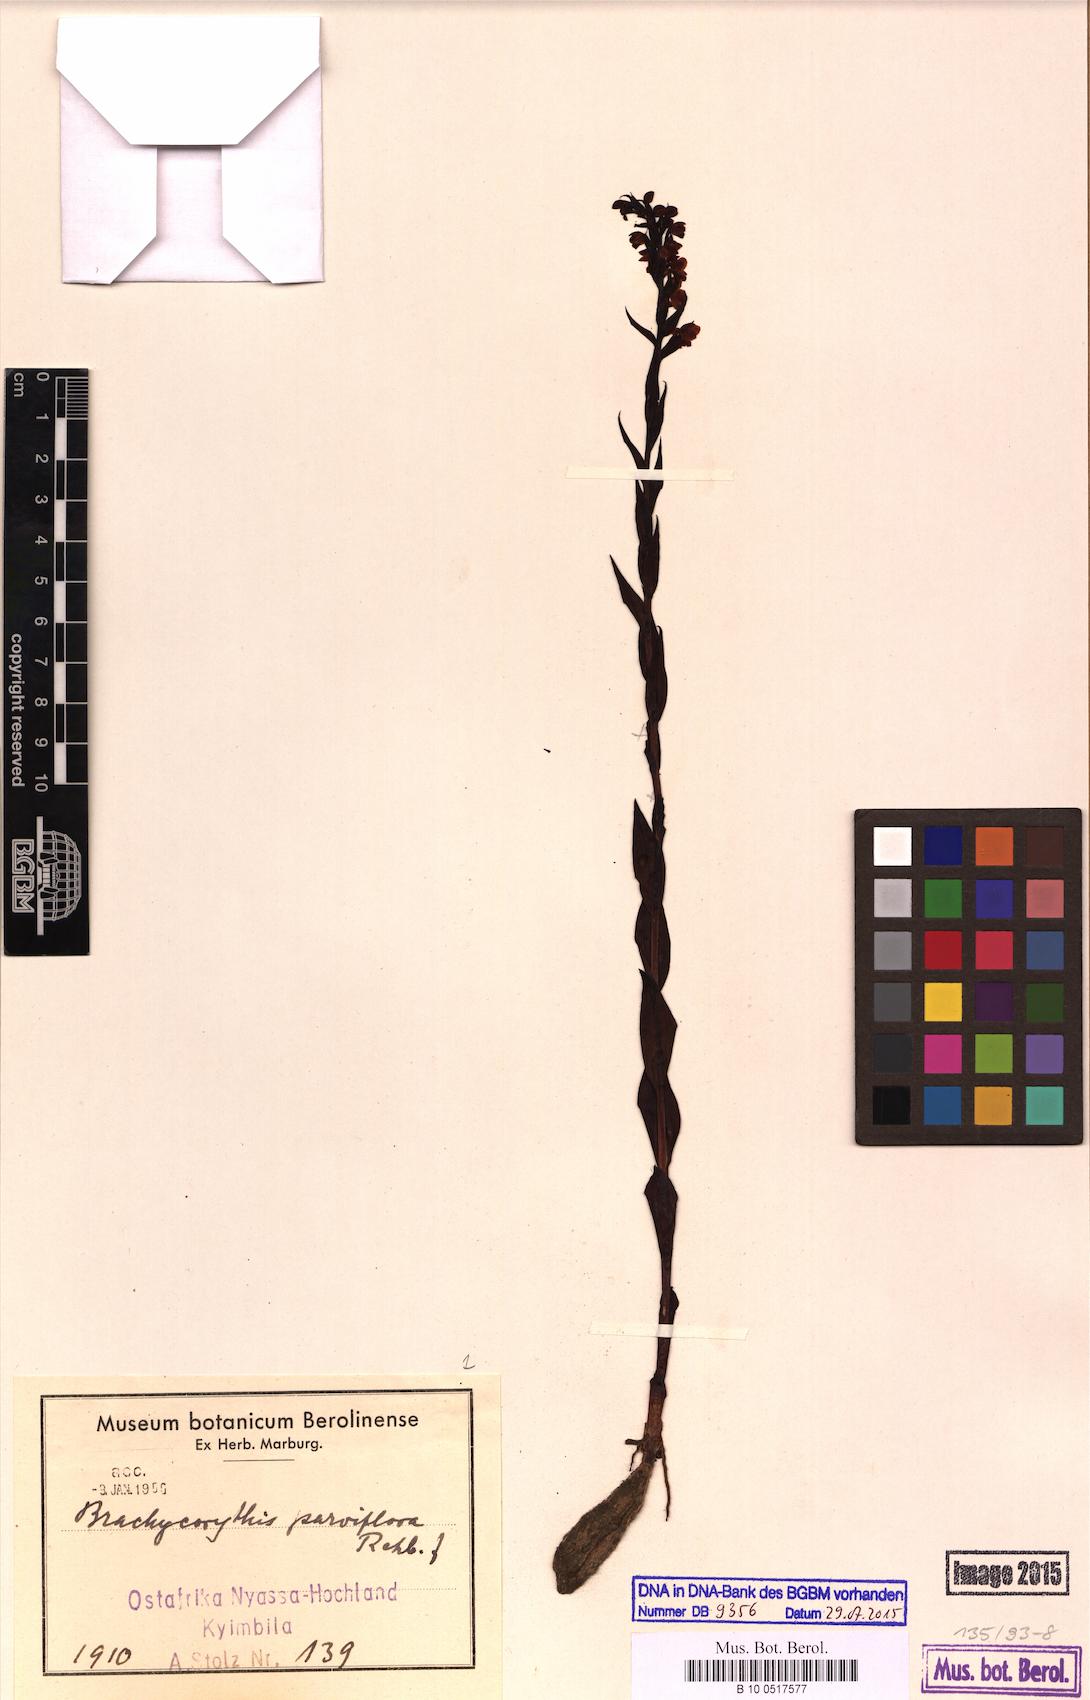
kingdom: Plantae
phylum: Tracheophyta
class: Liliopsida
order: Asparagales
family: Orchidaceae
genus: Brachycorythis
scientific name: Brachycorythis buchananii
